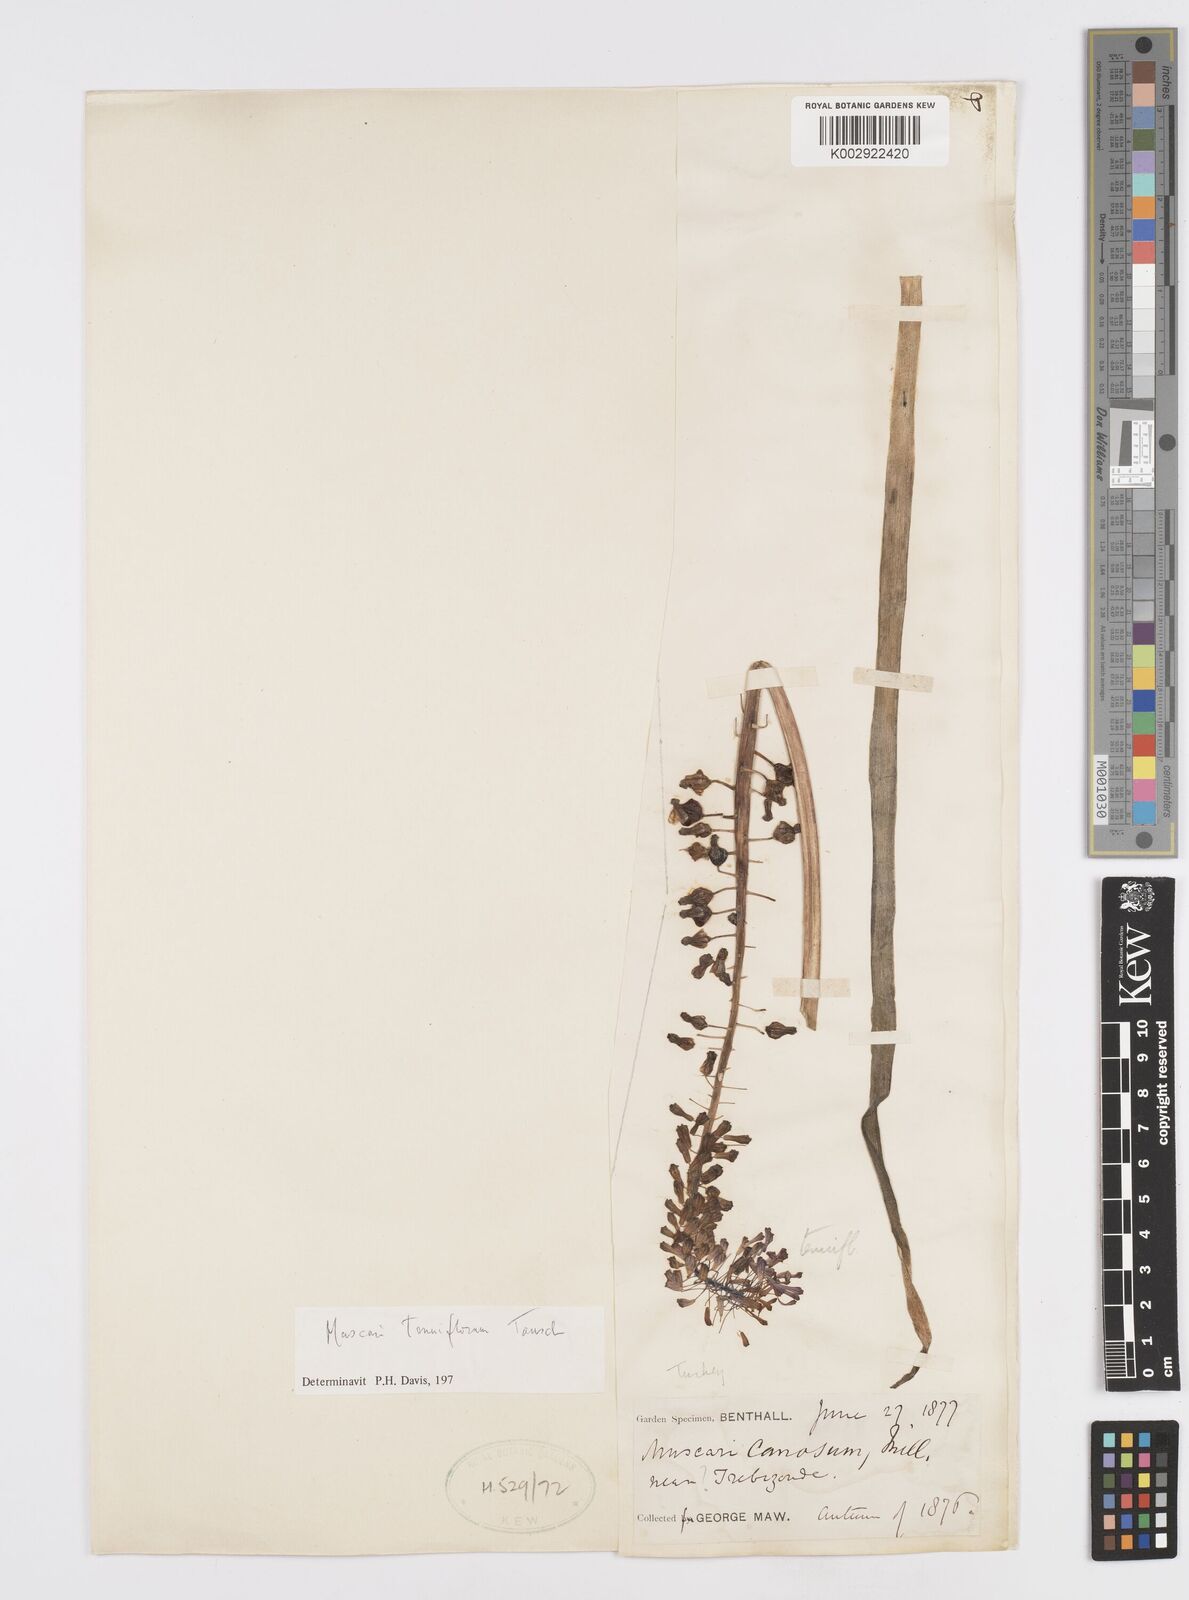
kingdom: Plantae
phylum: Tracheophyta
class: Liliopsida
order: Asparagales
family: Asparagaceae
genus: Muscari
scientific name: Muscari tenuiflorum
